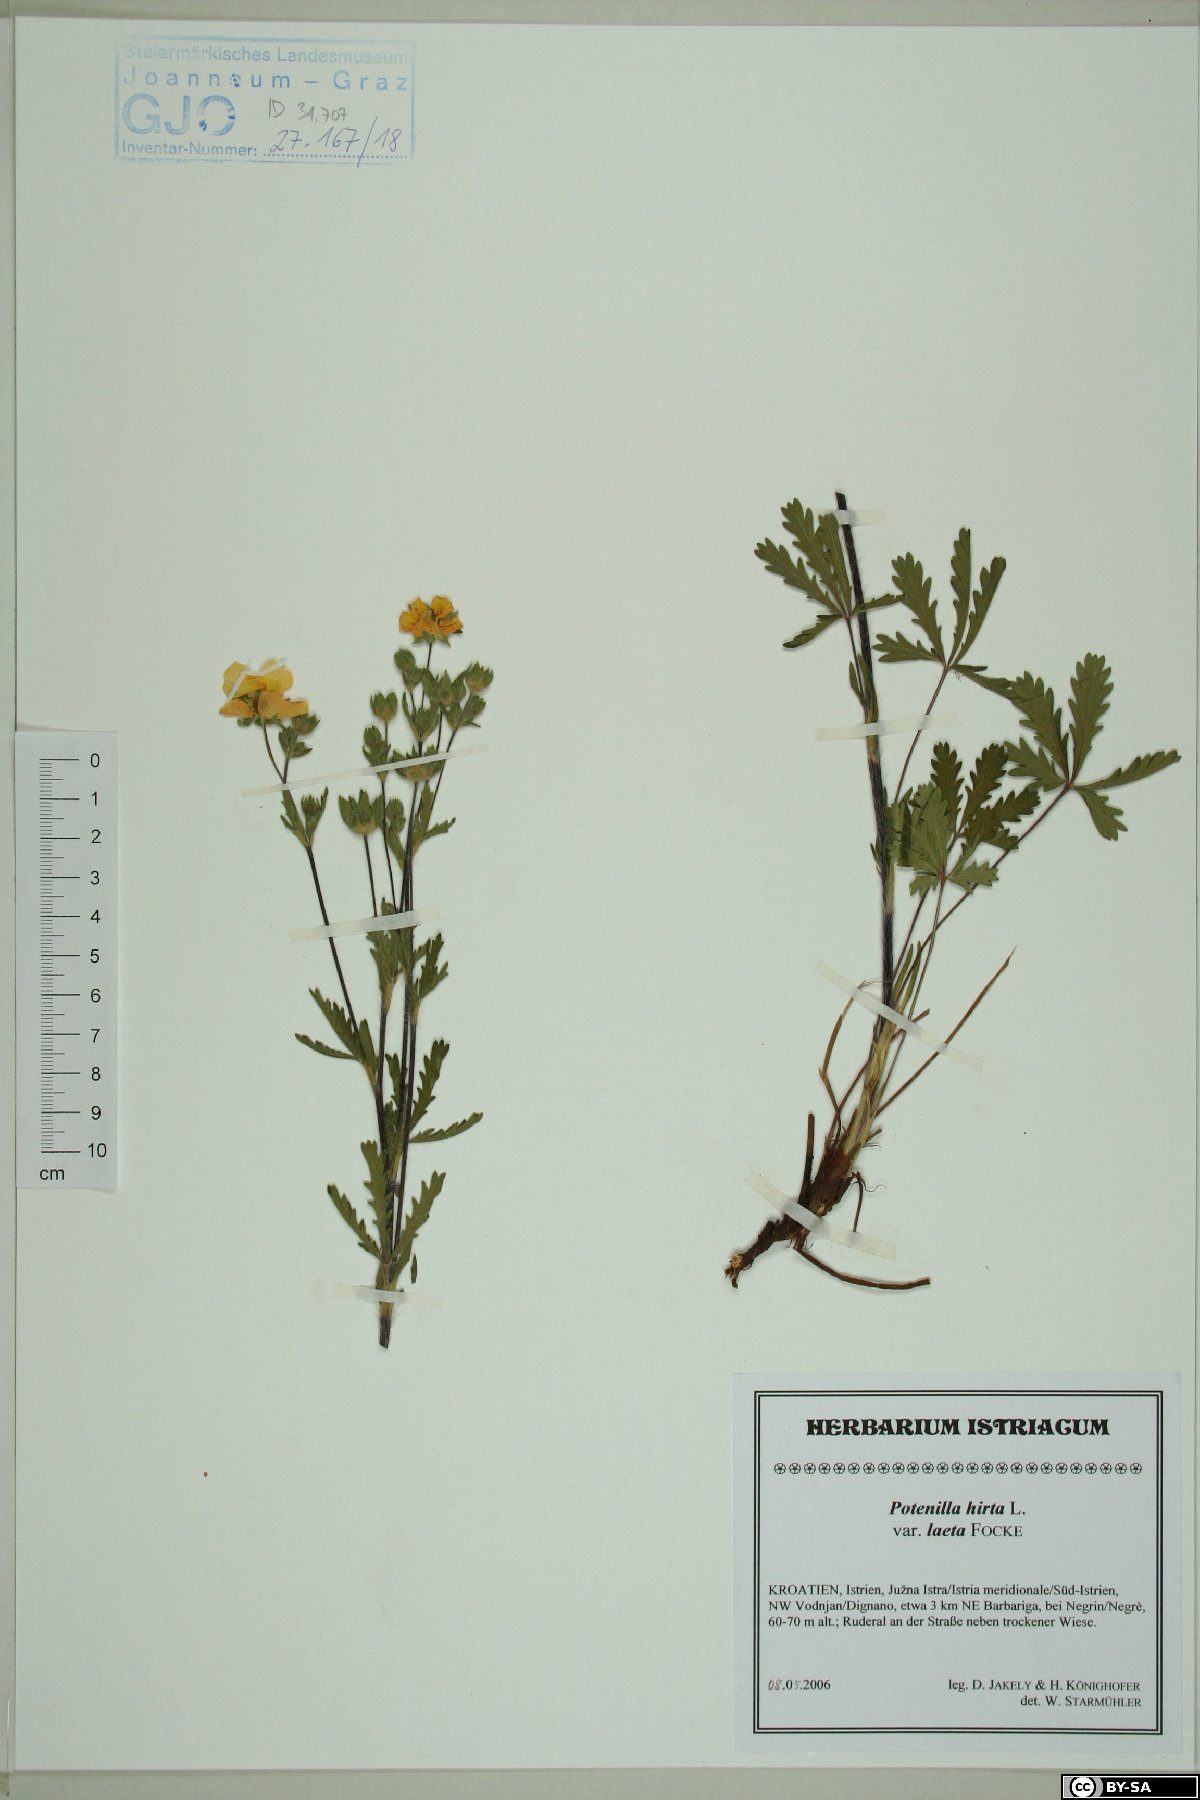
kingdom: Plantae
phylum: Tracheophyta
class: Magnoliopsida
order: Rosales
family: Rosaceae
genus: Potentilla
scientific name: Potentilla hirta
